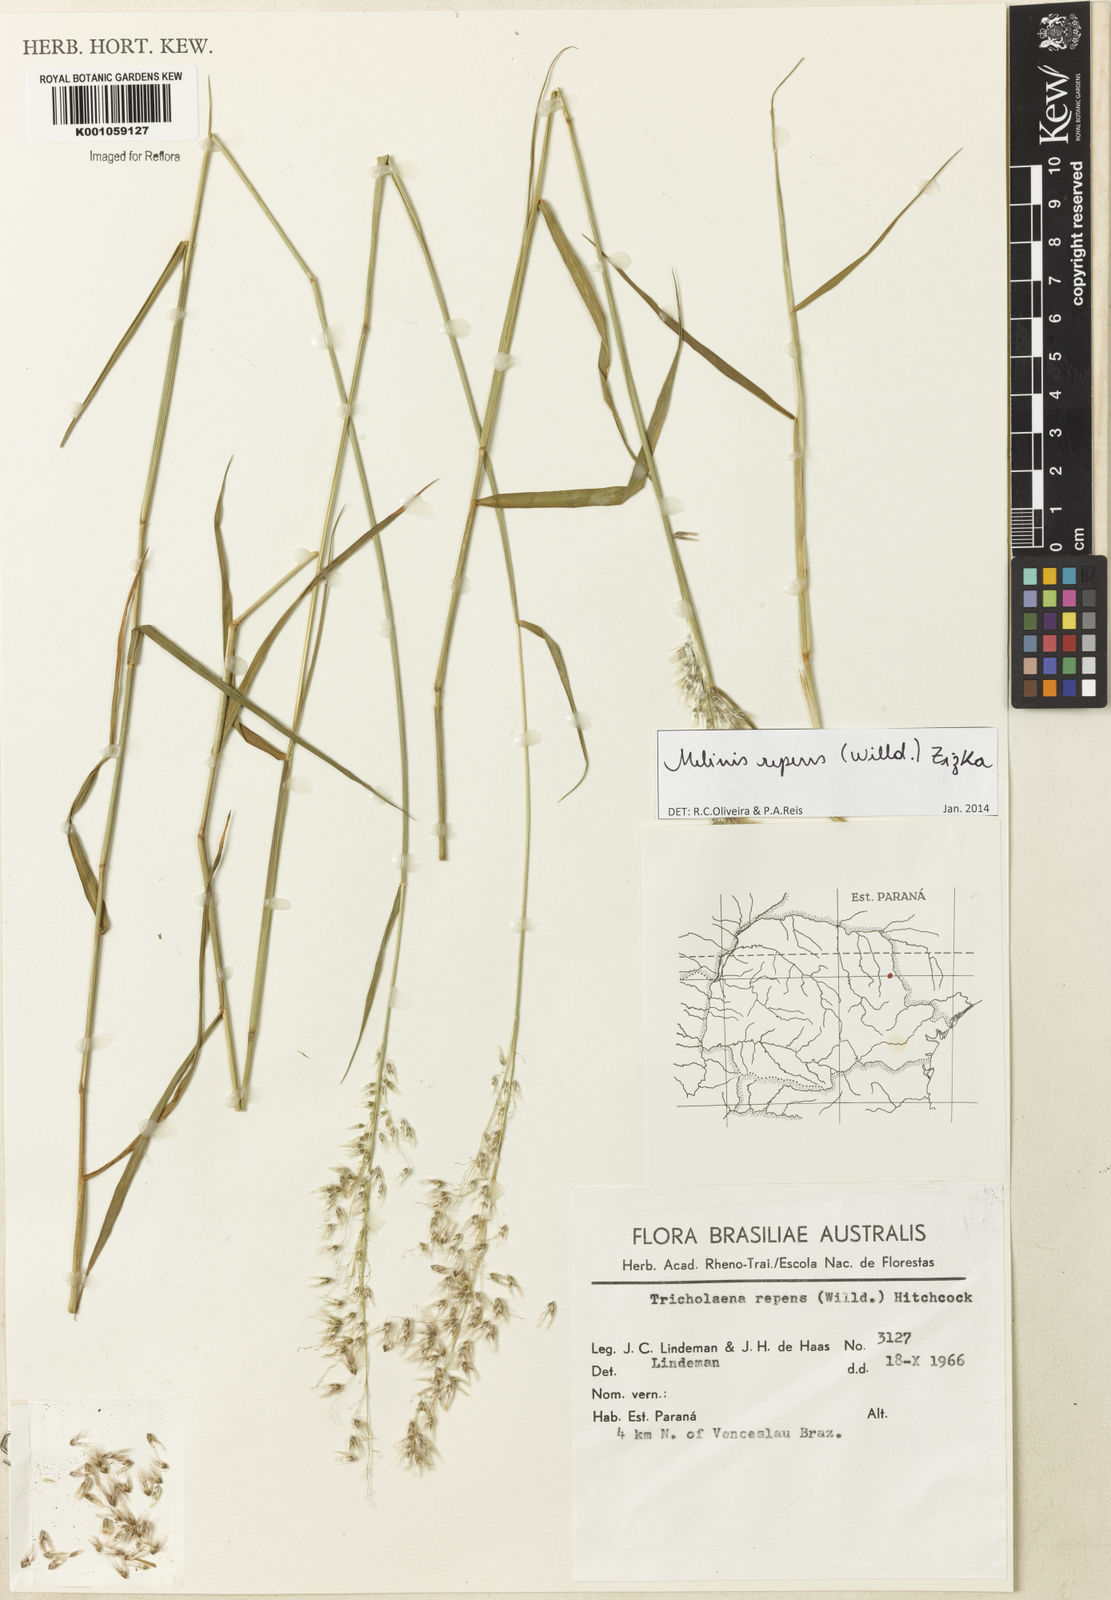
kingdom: Plantae
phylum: Tracheophyta
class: Liliopsida
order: Poales
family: Poaceae
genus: Melinis
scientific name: Melinis repens
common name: Rose natal grass
